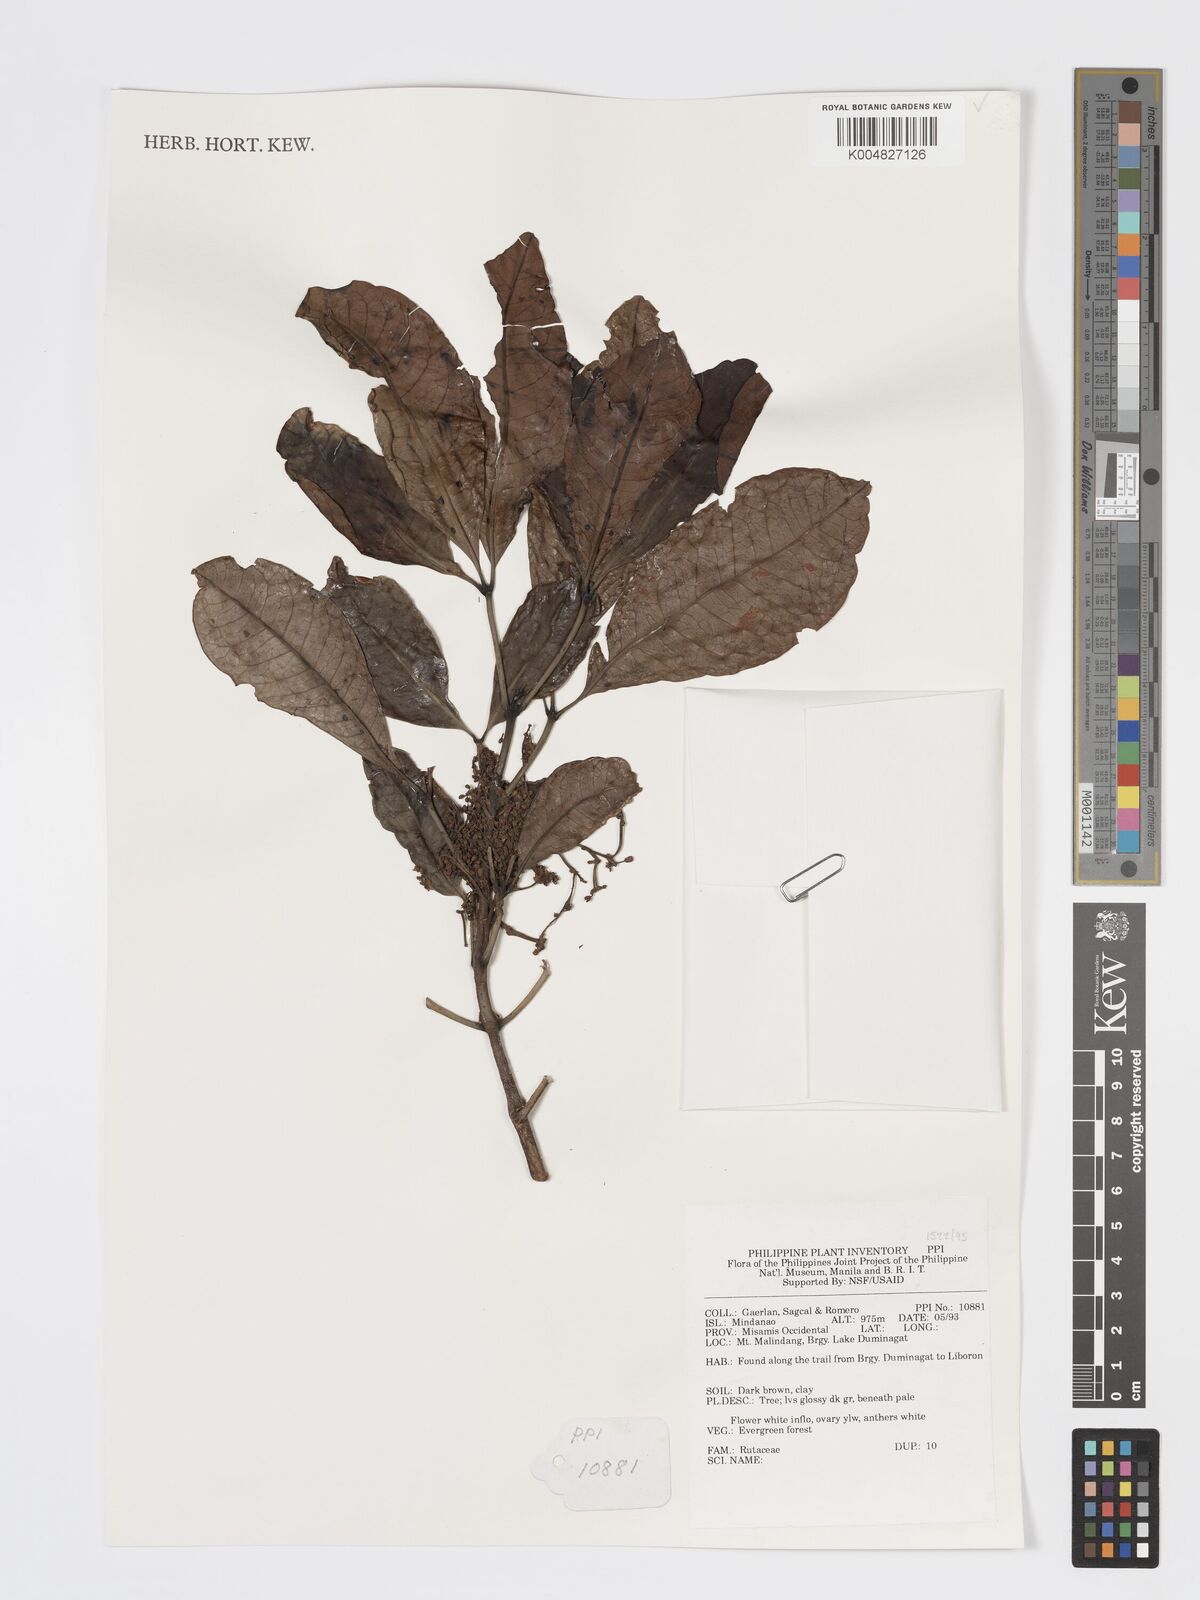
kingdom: Plantae
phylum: Tracheophyta
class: Magnoliopsida
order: Sapindales
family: Rutaceae
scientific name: Rutaceae
